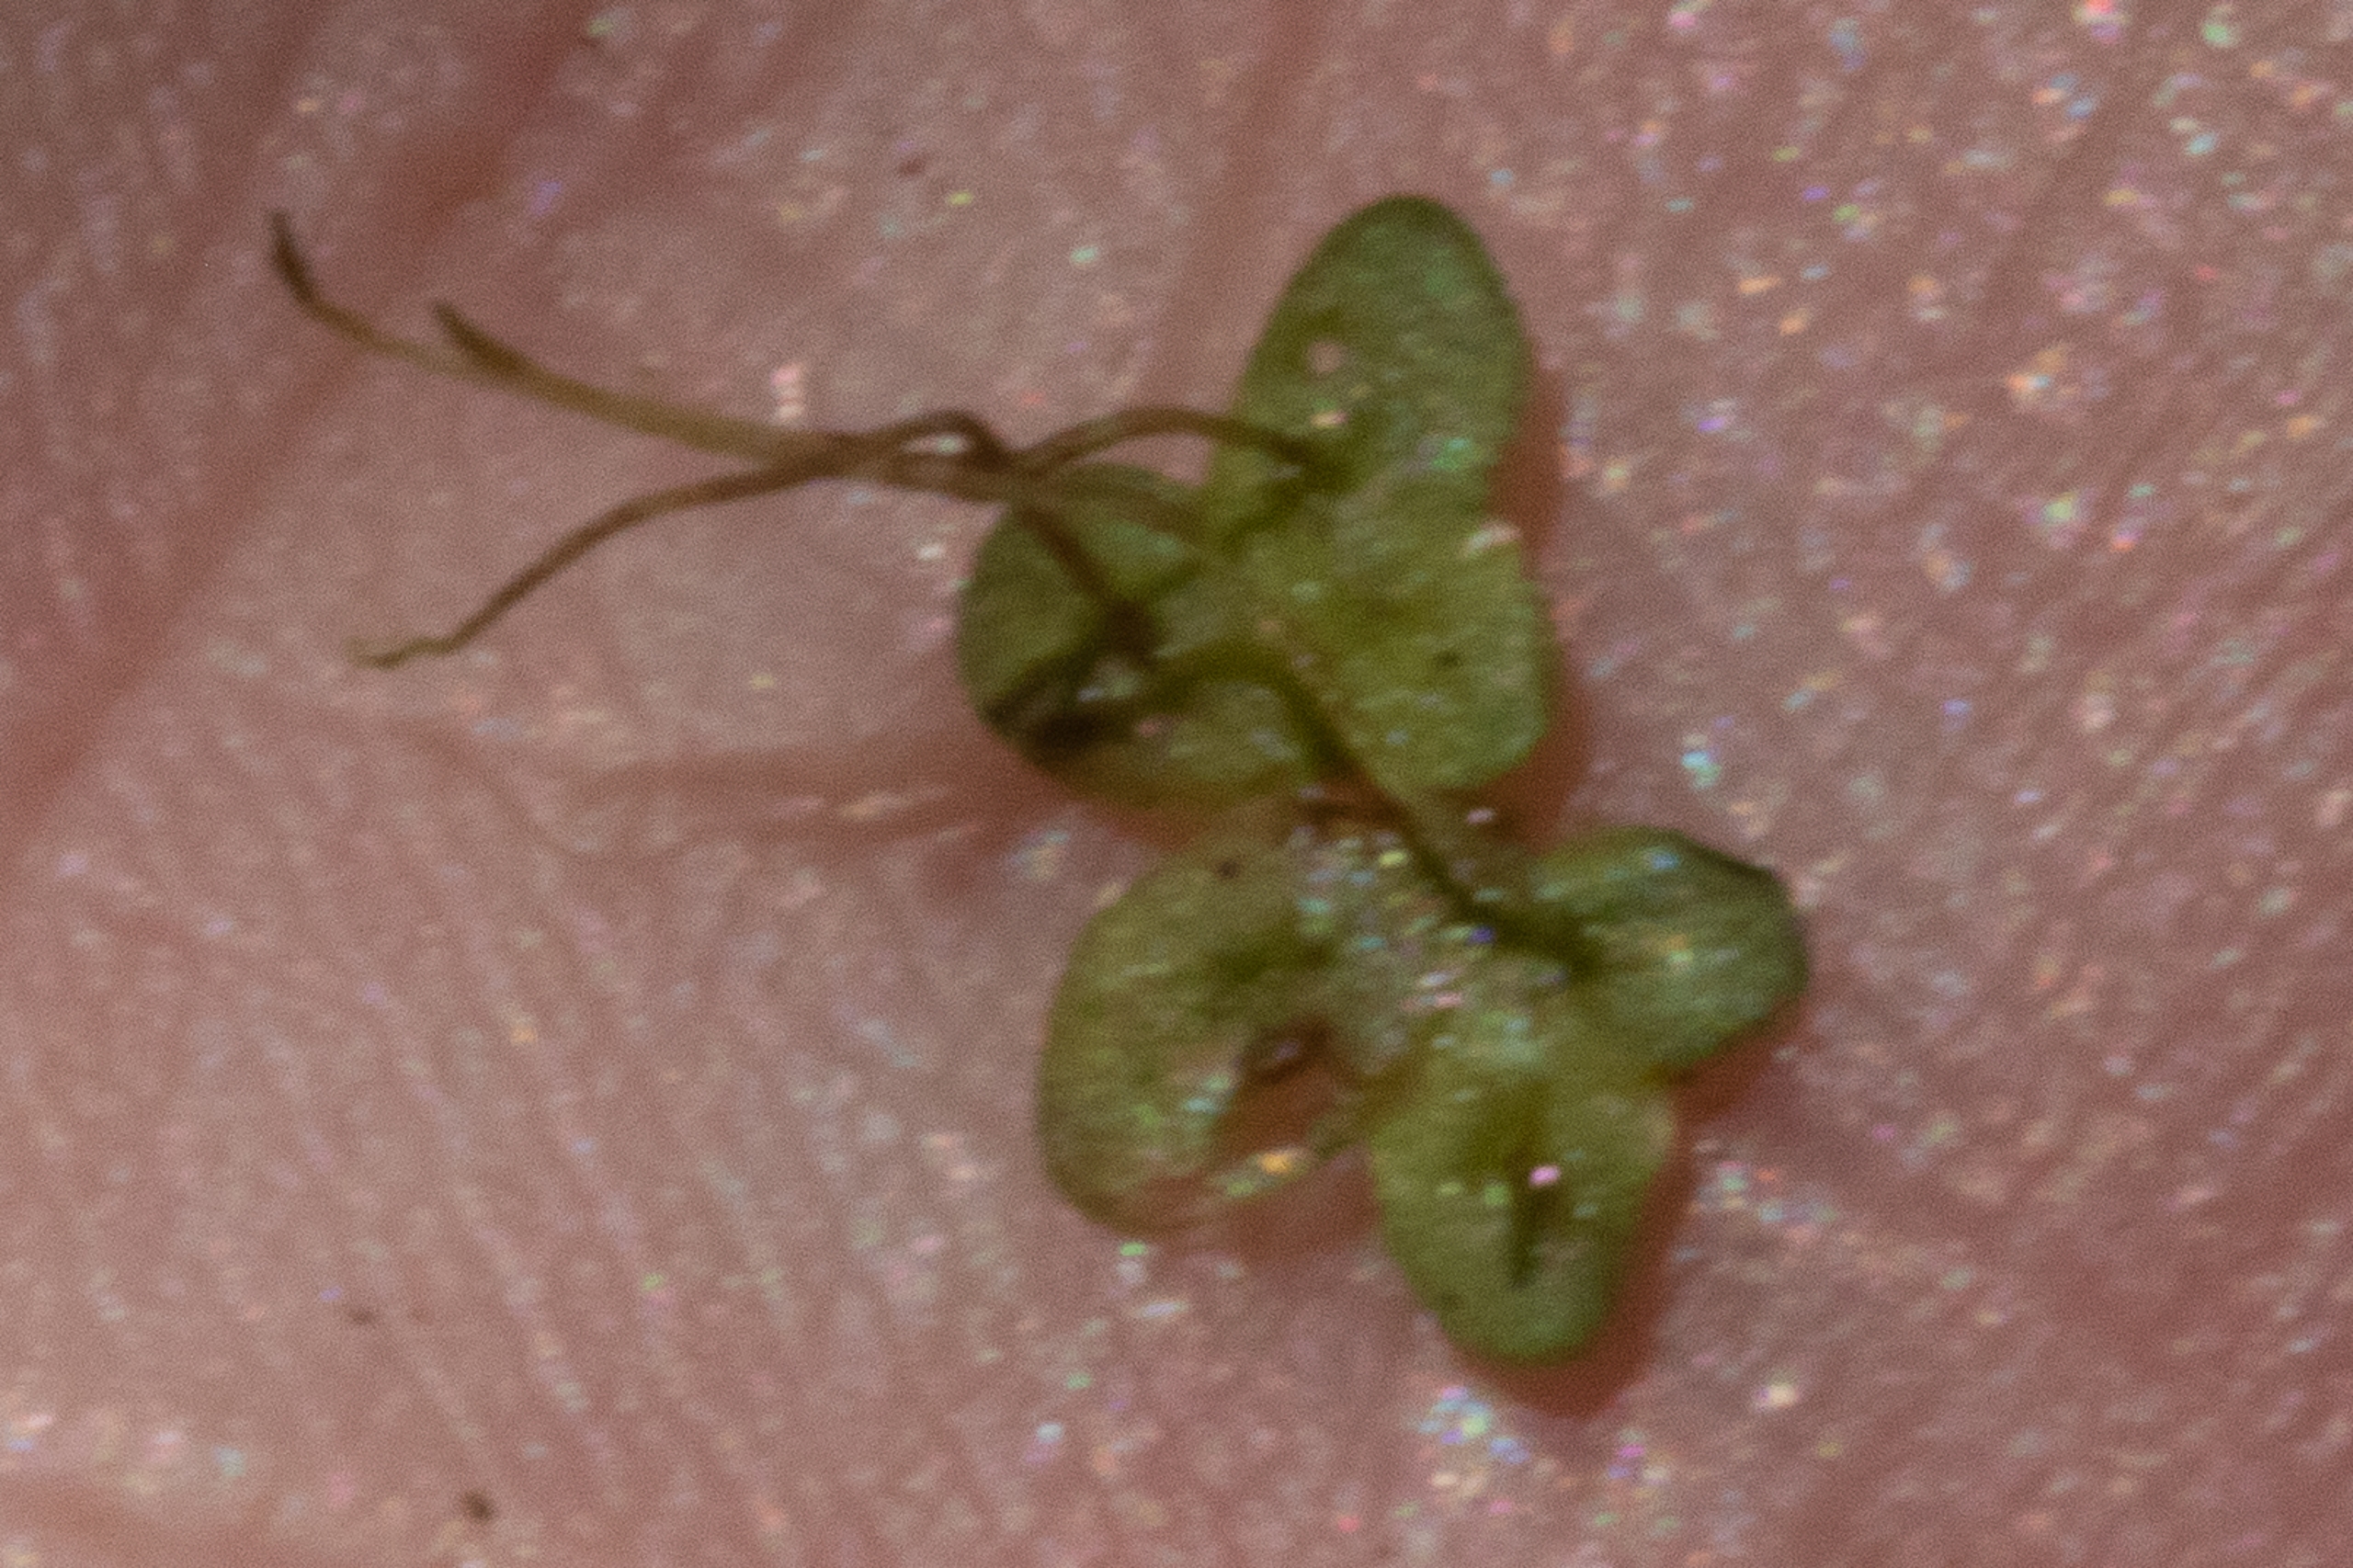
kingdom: Plantae
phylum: Tracheophyta
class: Liliopsida
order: Alismatales
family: Araceae
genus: Lemna
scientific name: Lemna minor
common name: Liden andemad
